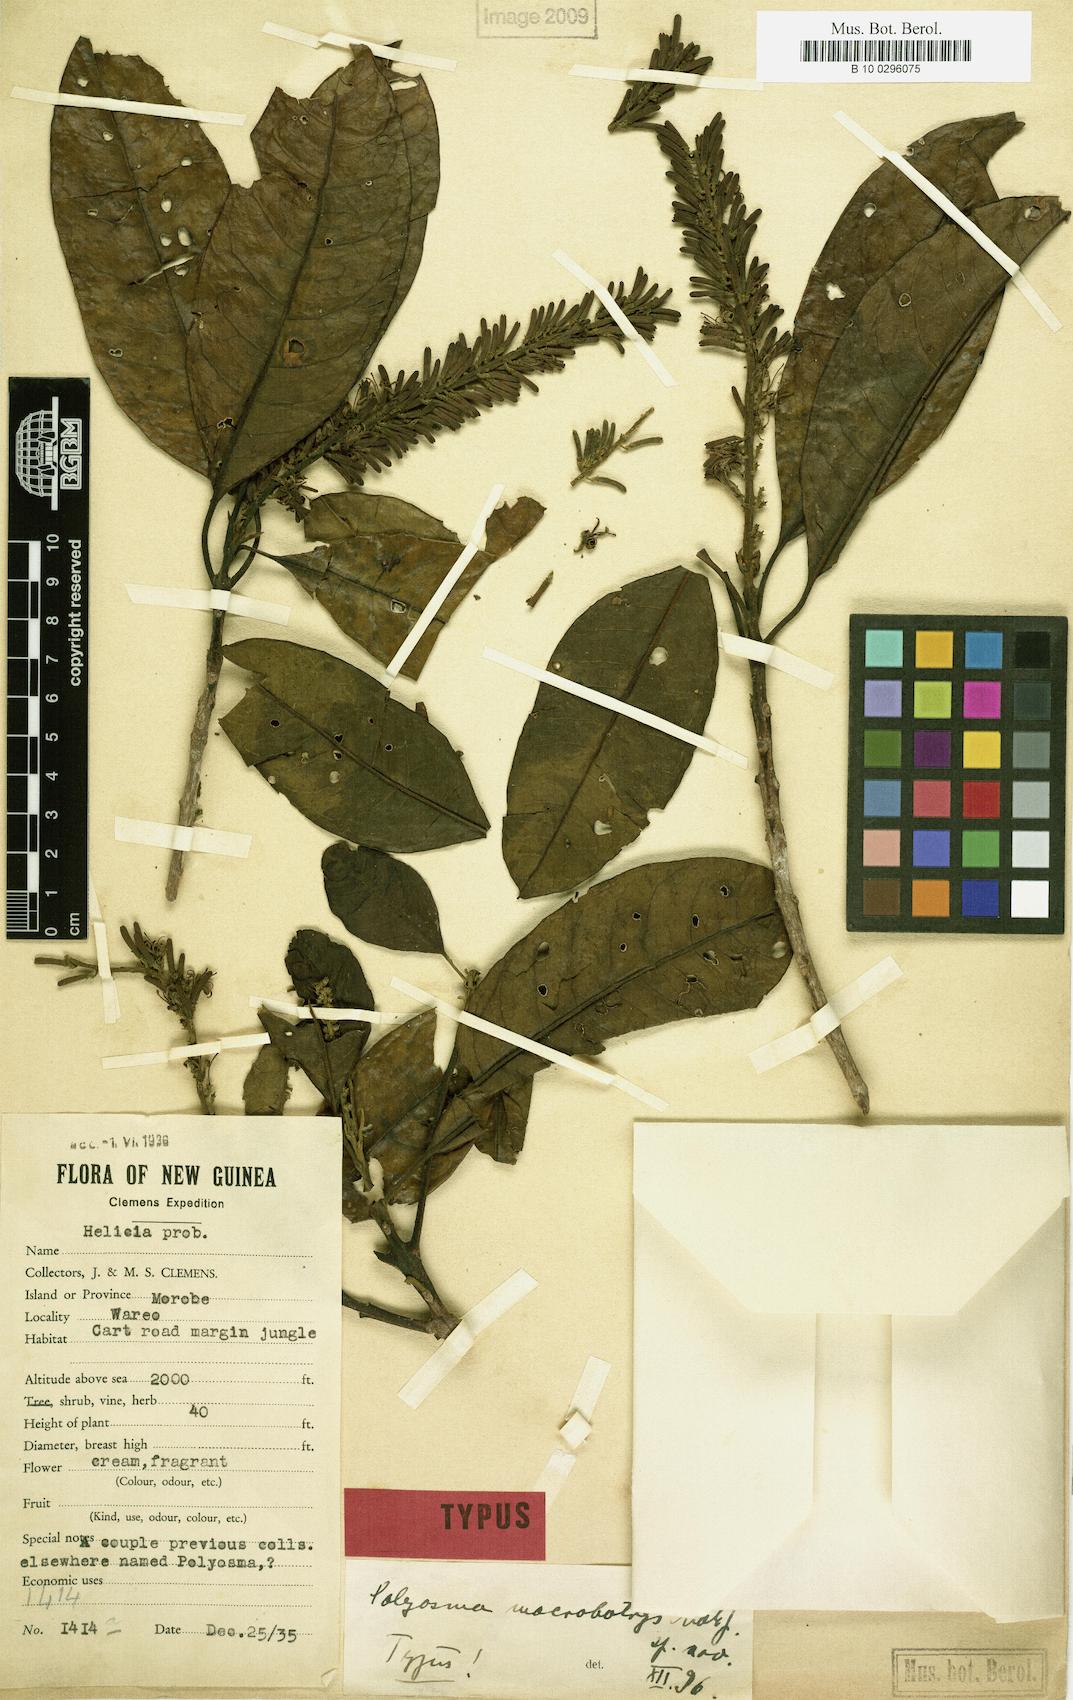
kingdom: Plantae
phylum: Tracheophyta
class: Magnoliopsida
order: Escalloniales
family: Escalloniaceae
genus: Polyosma
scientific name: Polyosma macrobotrys
